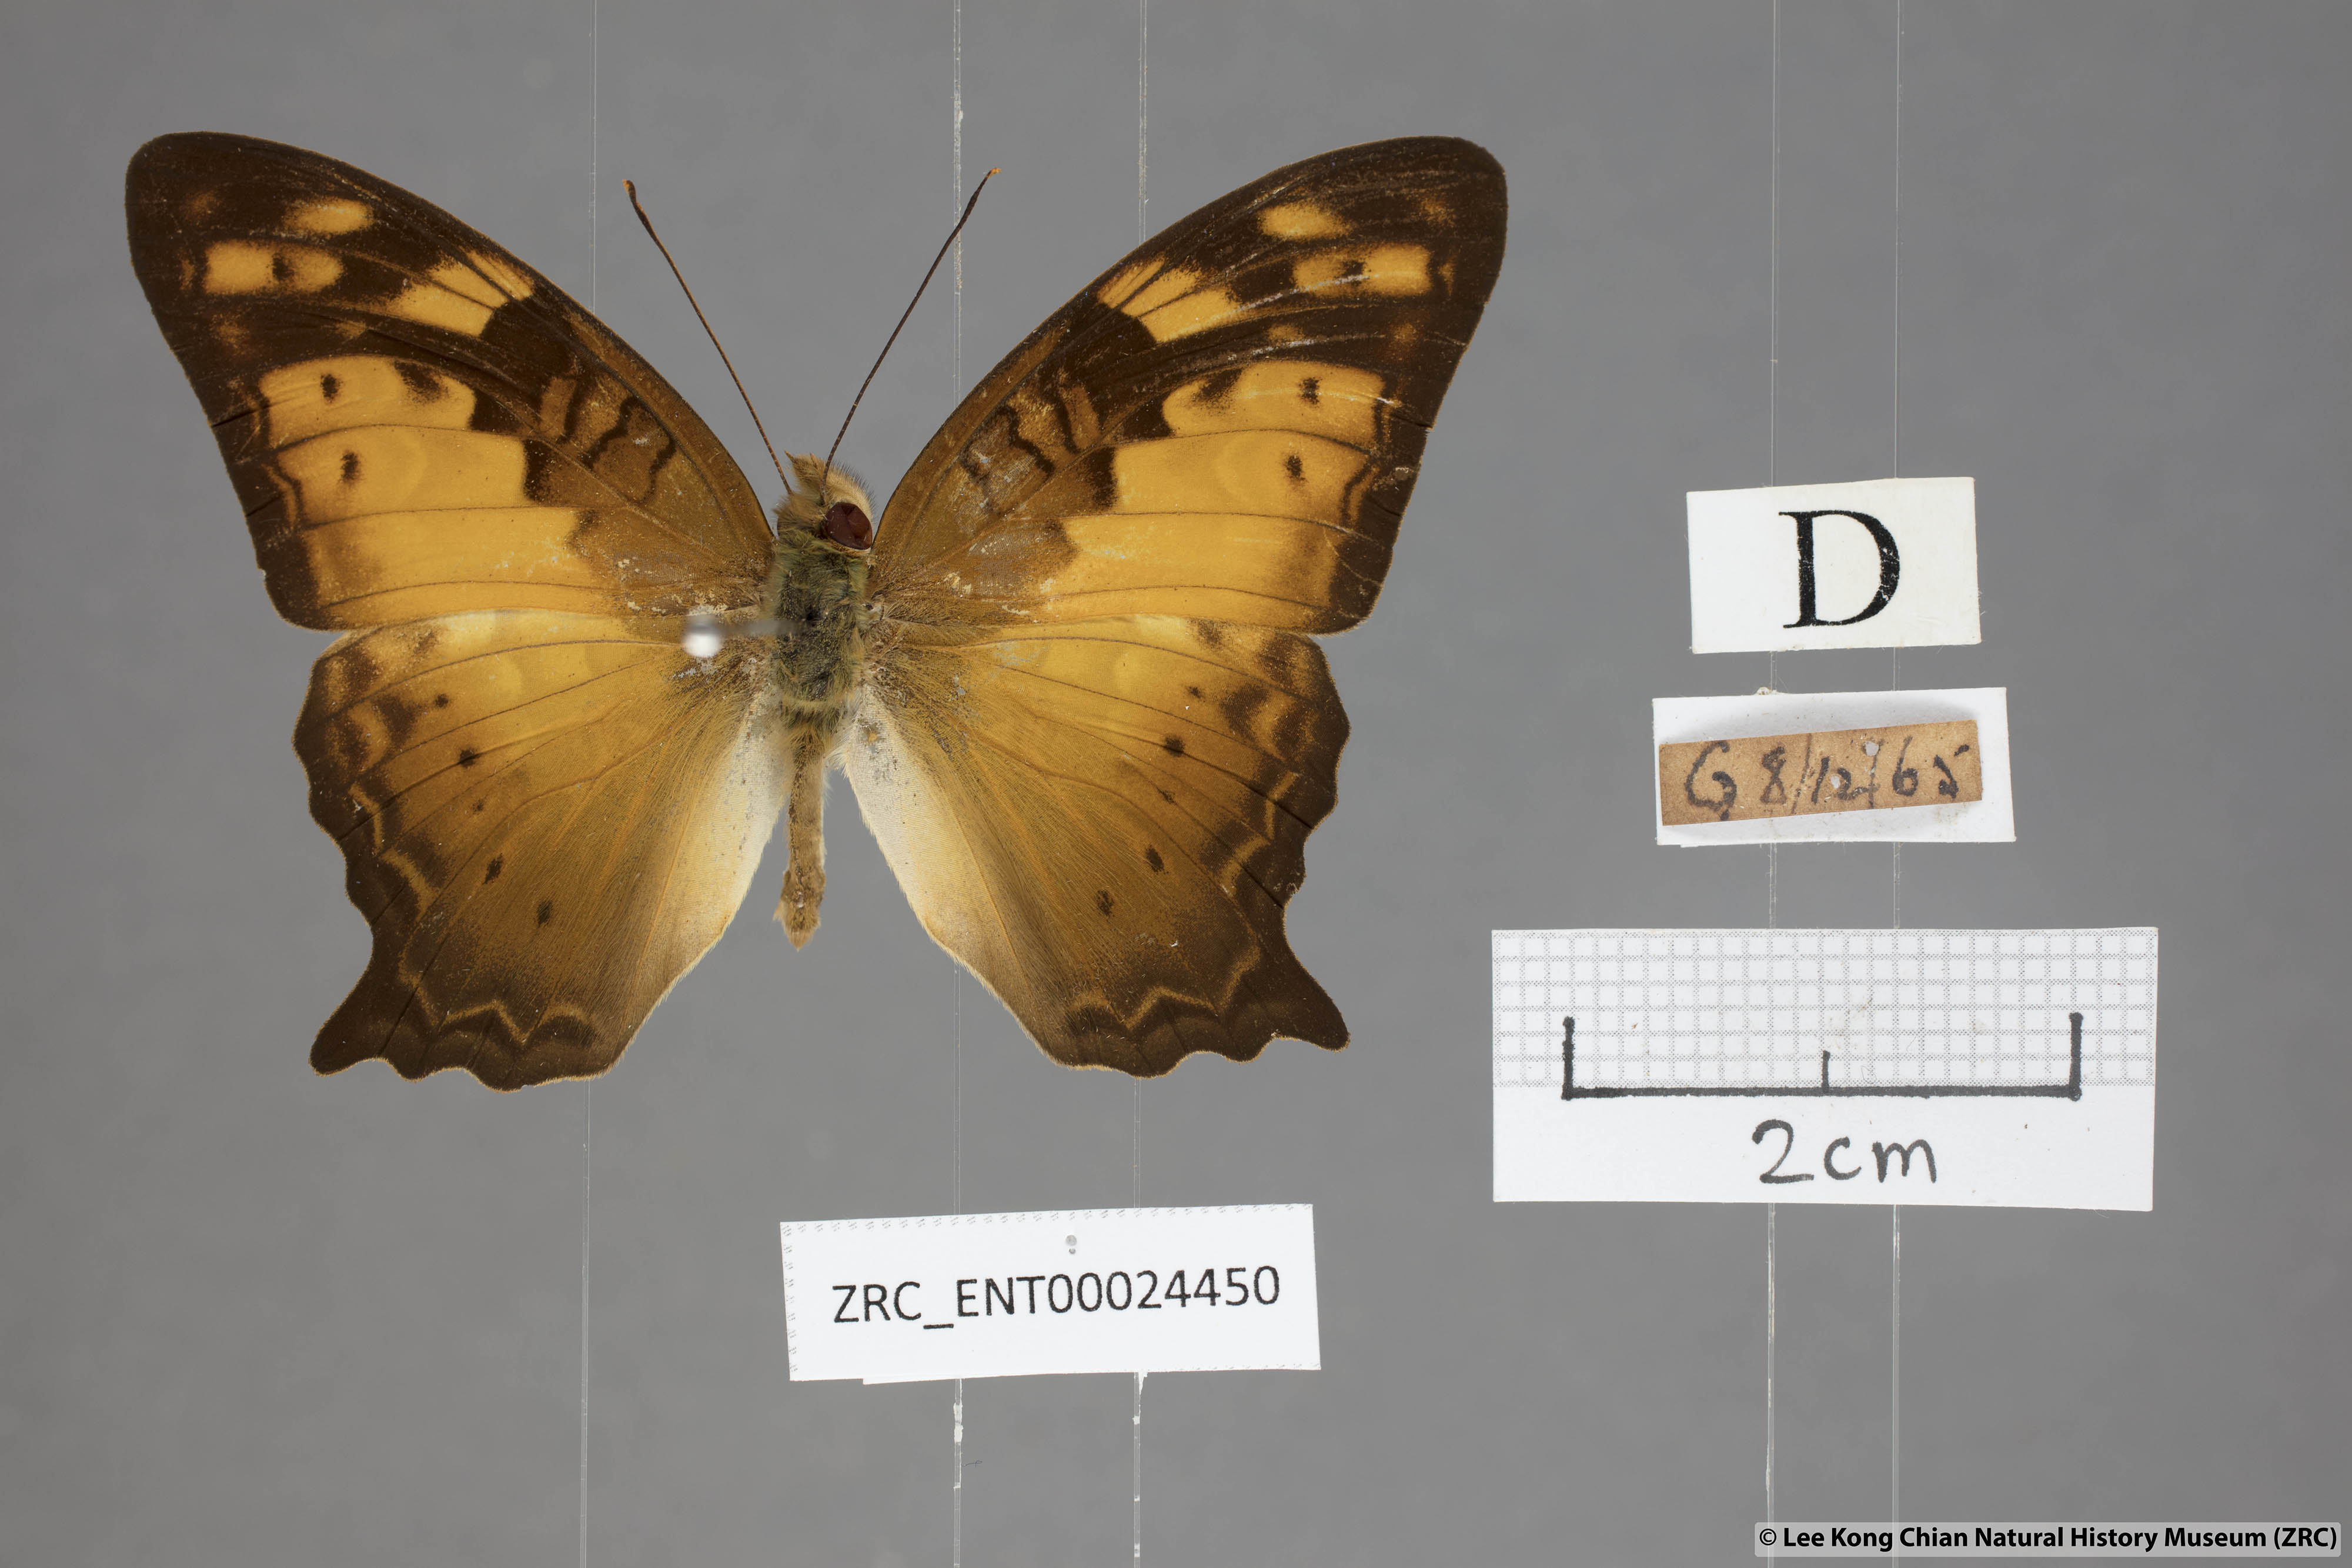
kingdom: Animalia
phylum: Arthropoda
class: Insecta
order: Lepidoptera
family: Nymphalidae
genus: Vagrans
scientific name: Vagrans egista
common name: Tailed rustic
